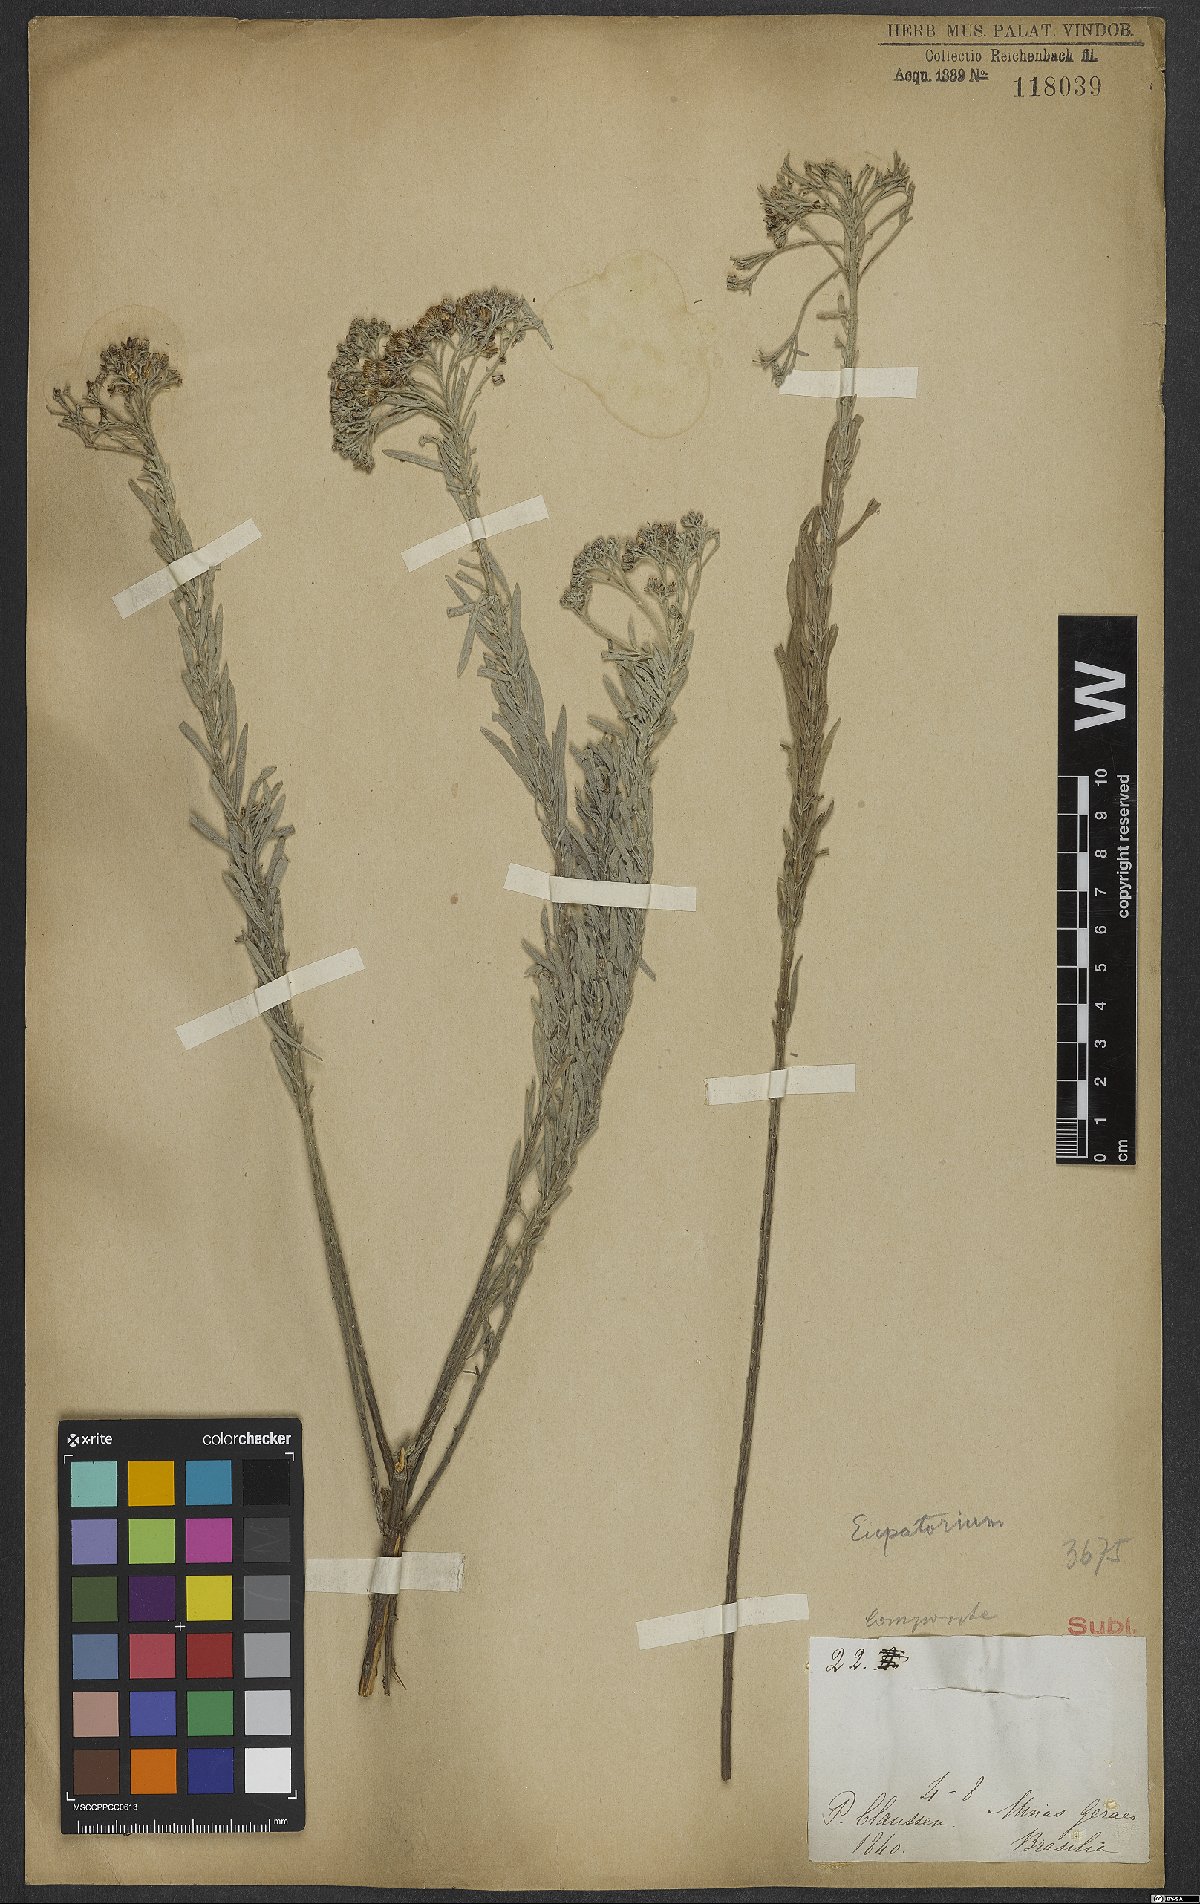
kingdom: Plantae
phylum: Tracheophyta
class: Magnoliopsida
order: Asterales
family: Asteraceae
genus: Eupatorium
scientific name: Eupatorium
